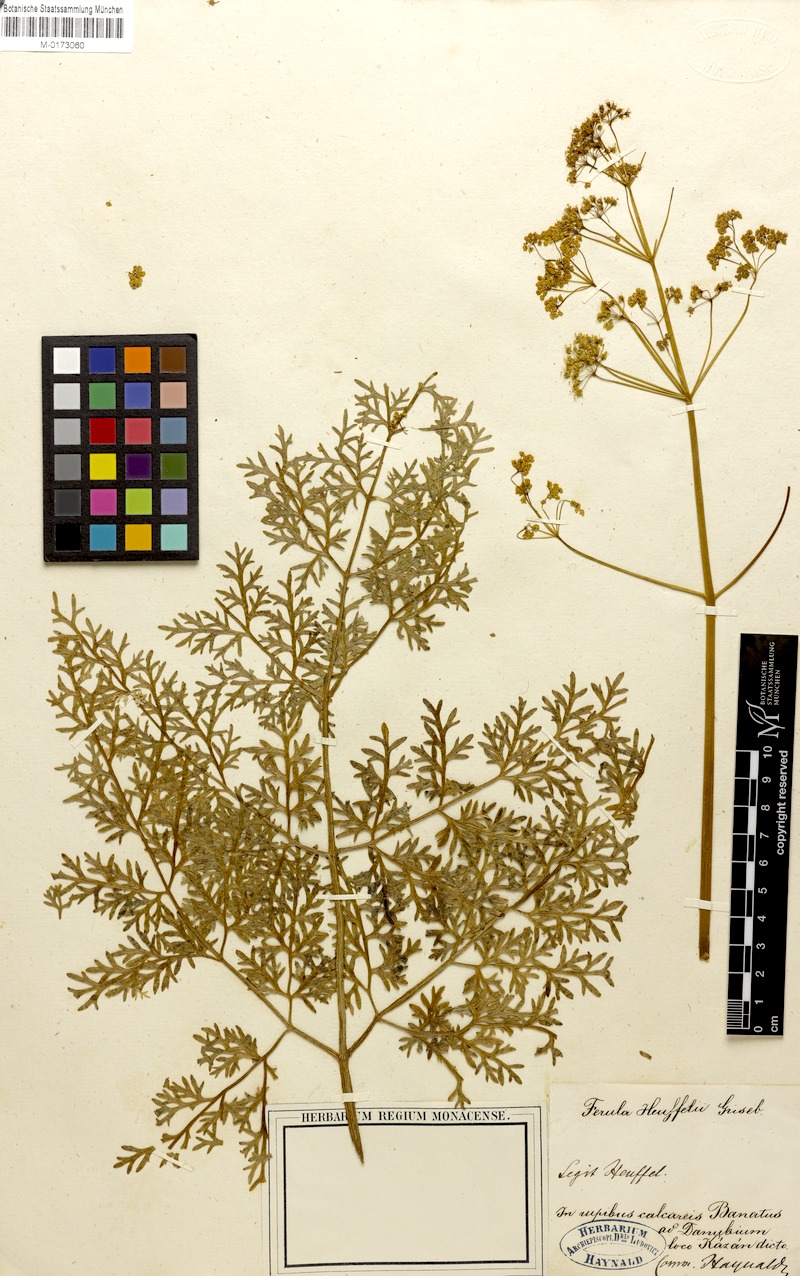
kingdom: Plantae
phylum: Tracheophyta
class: Magnoliopsida
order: Apiales
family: Apiaceae
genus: Ferula
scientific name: Ferula heuffelii
